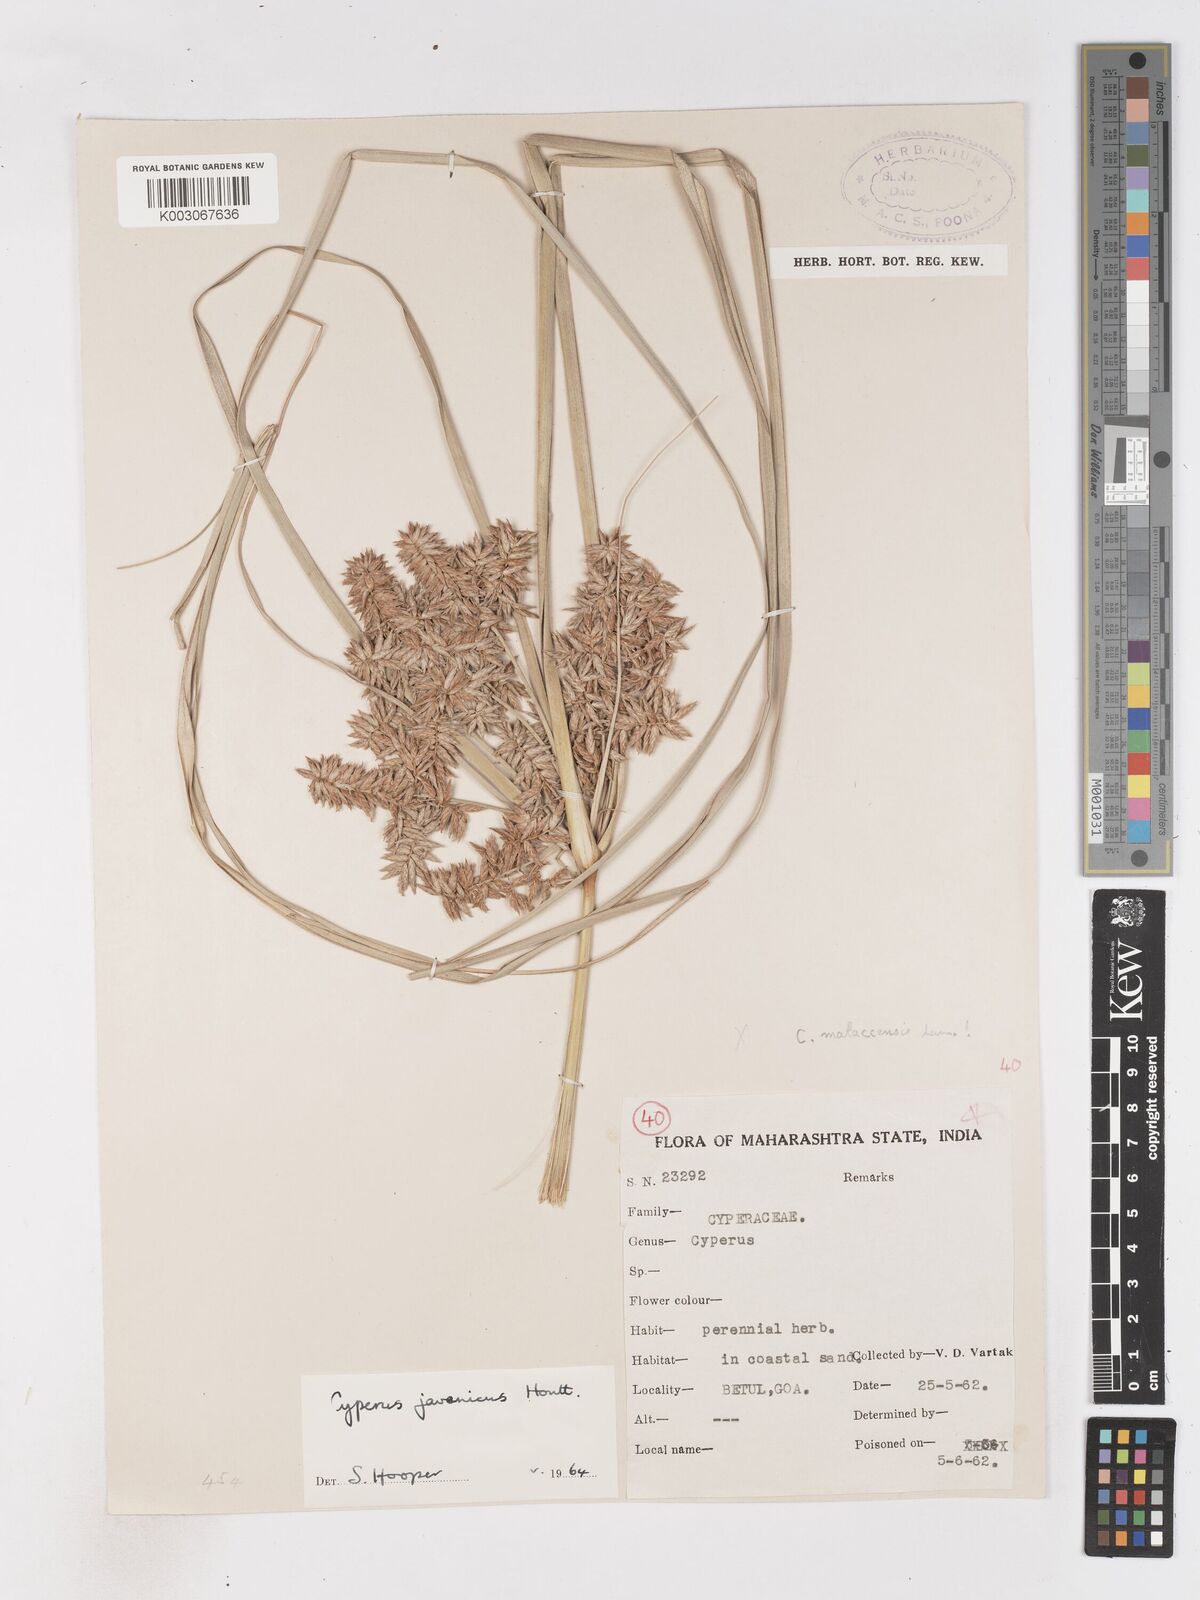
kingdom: Plantae
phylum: Tracheophyta
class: Liliopsida
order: Poales
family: Cyperaceae
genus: Cyperus
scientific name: Cyperus javanicus
